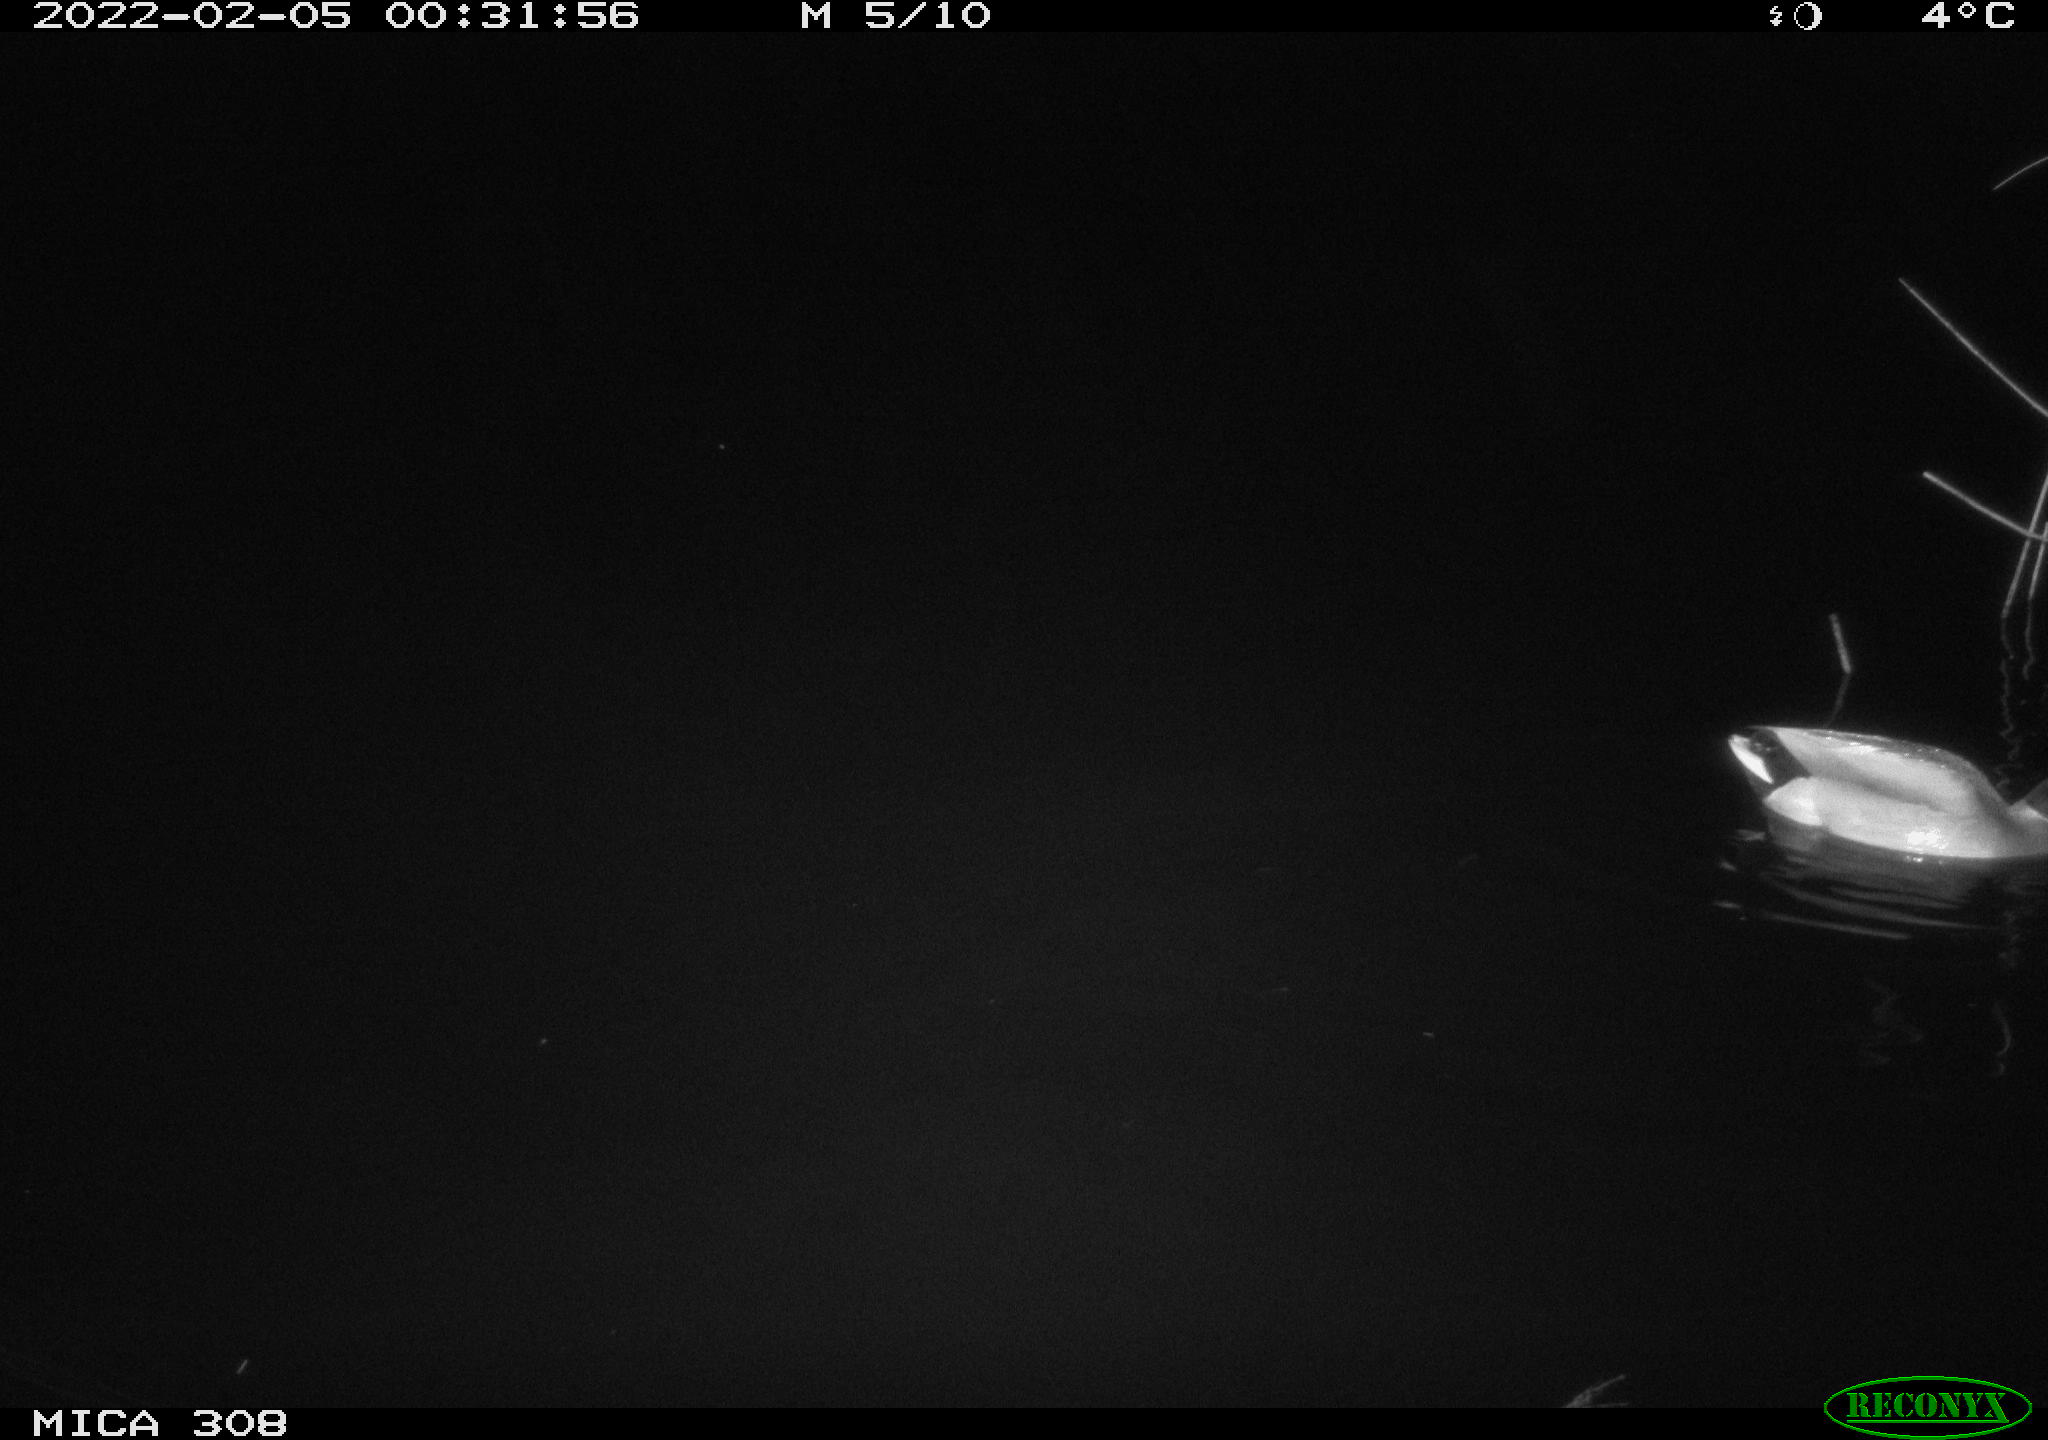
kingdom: Animalia
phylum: Chordata
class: Aves
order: Anseriformes
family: Anatidae
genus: Anas
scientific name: Anas platyrhynchos
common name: Mallard
